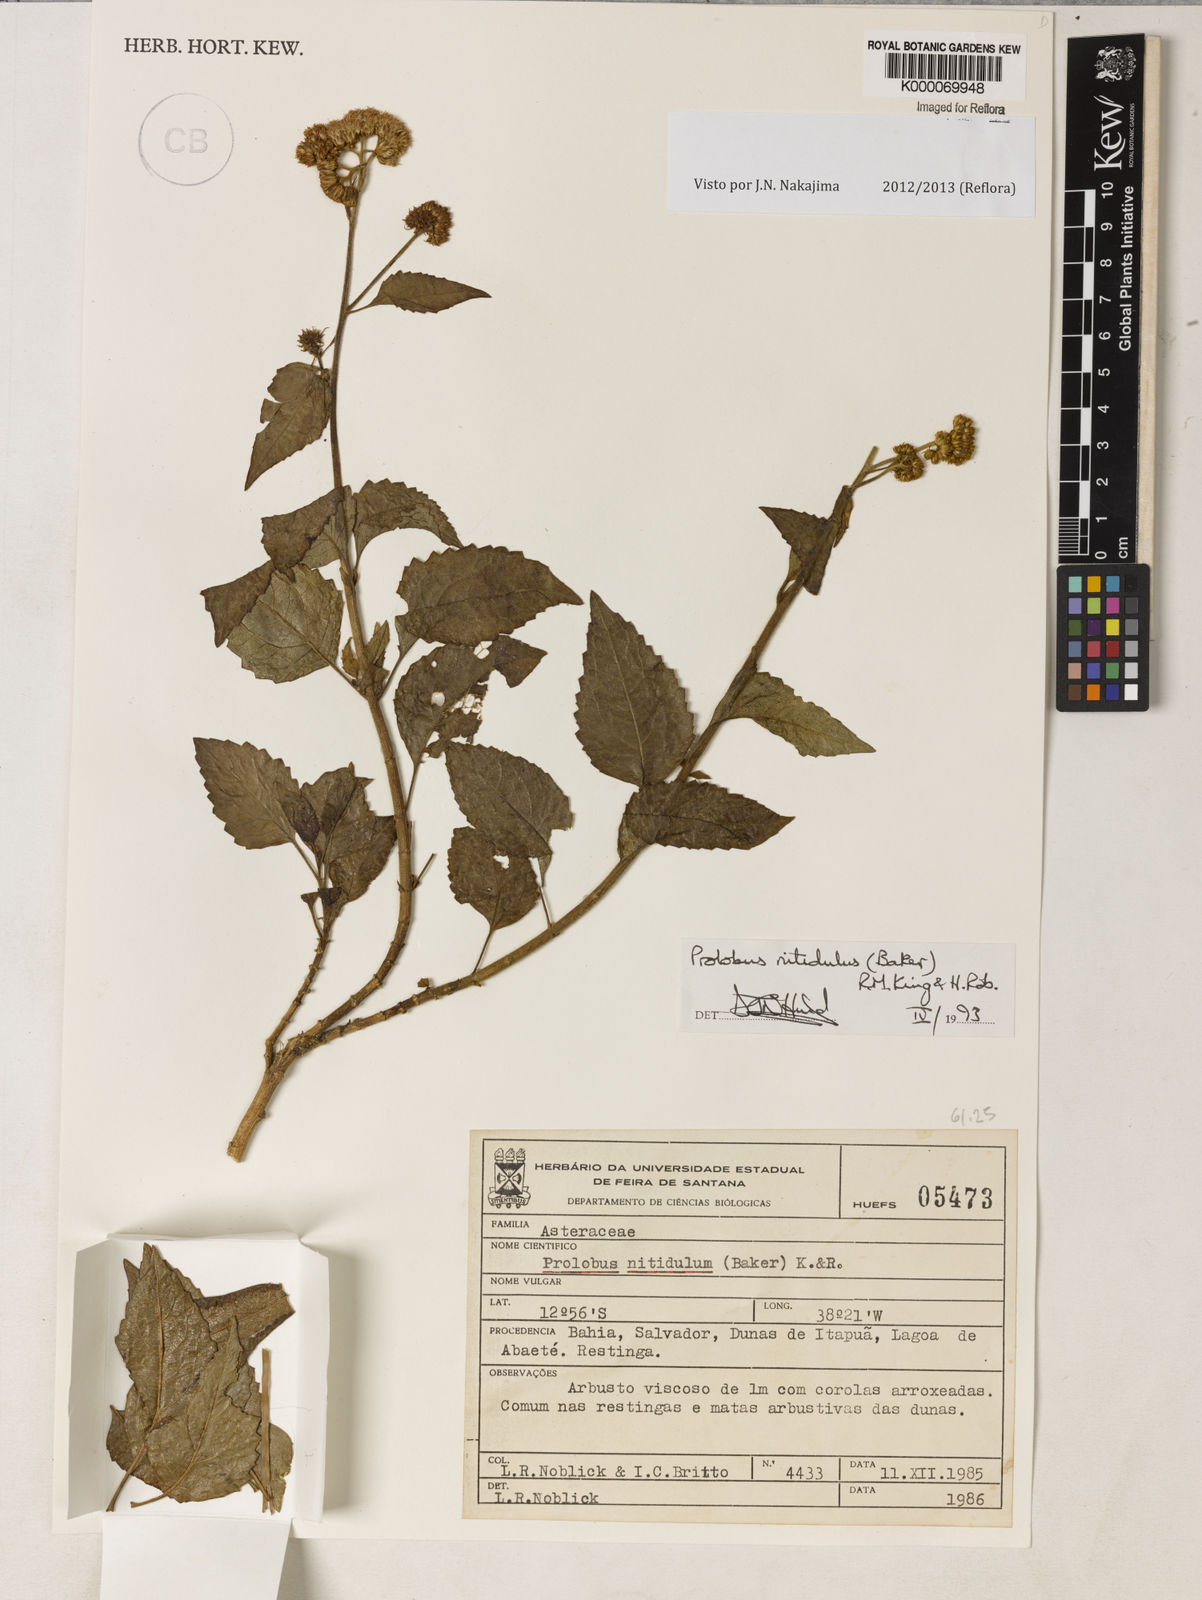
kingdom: Plantae
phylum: Tracheophyta
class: Magnoliopsida
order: Asterales
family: Asteraceae
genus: Prolobus
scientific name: Prolobus nitidulus
